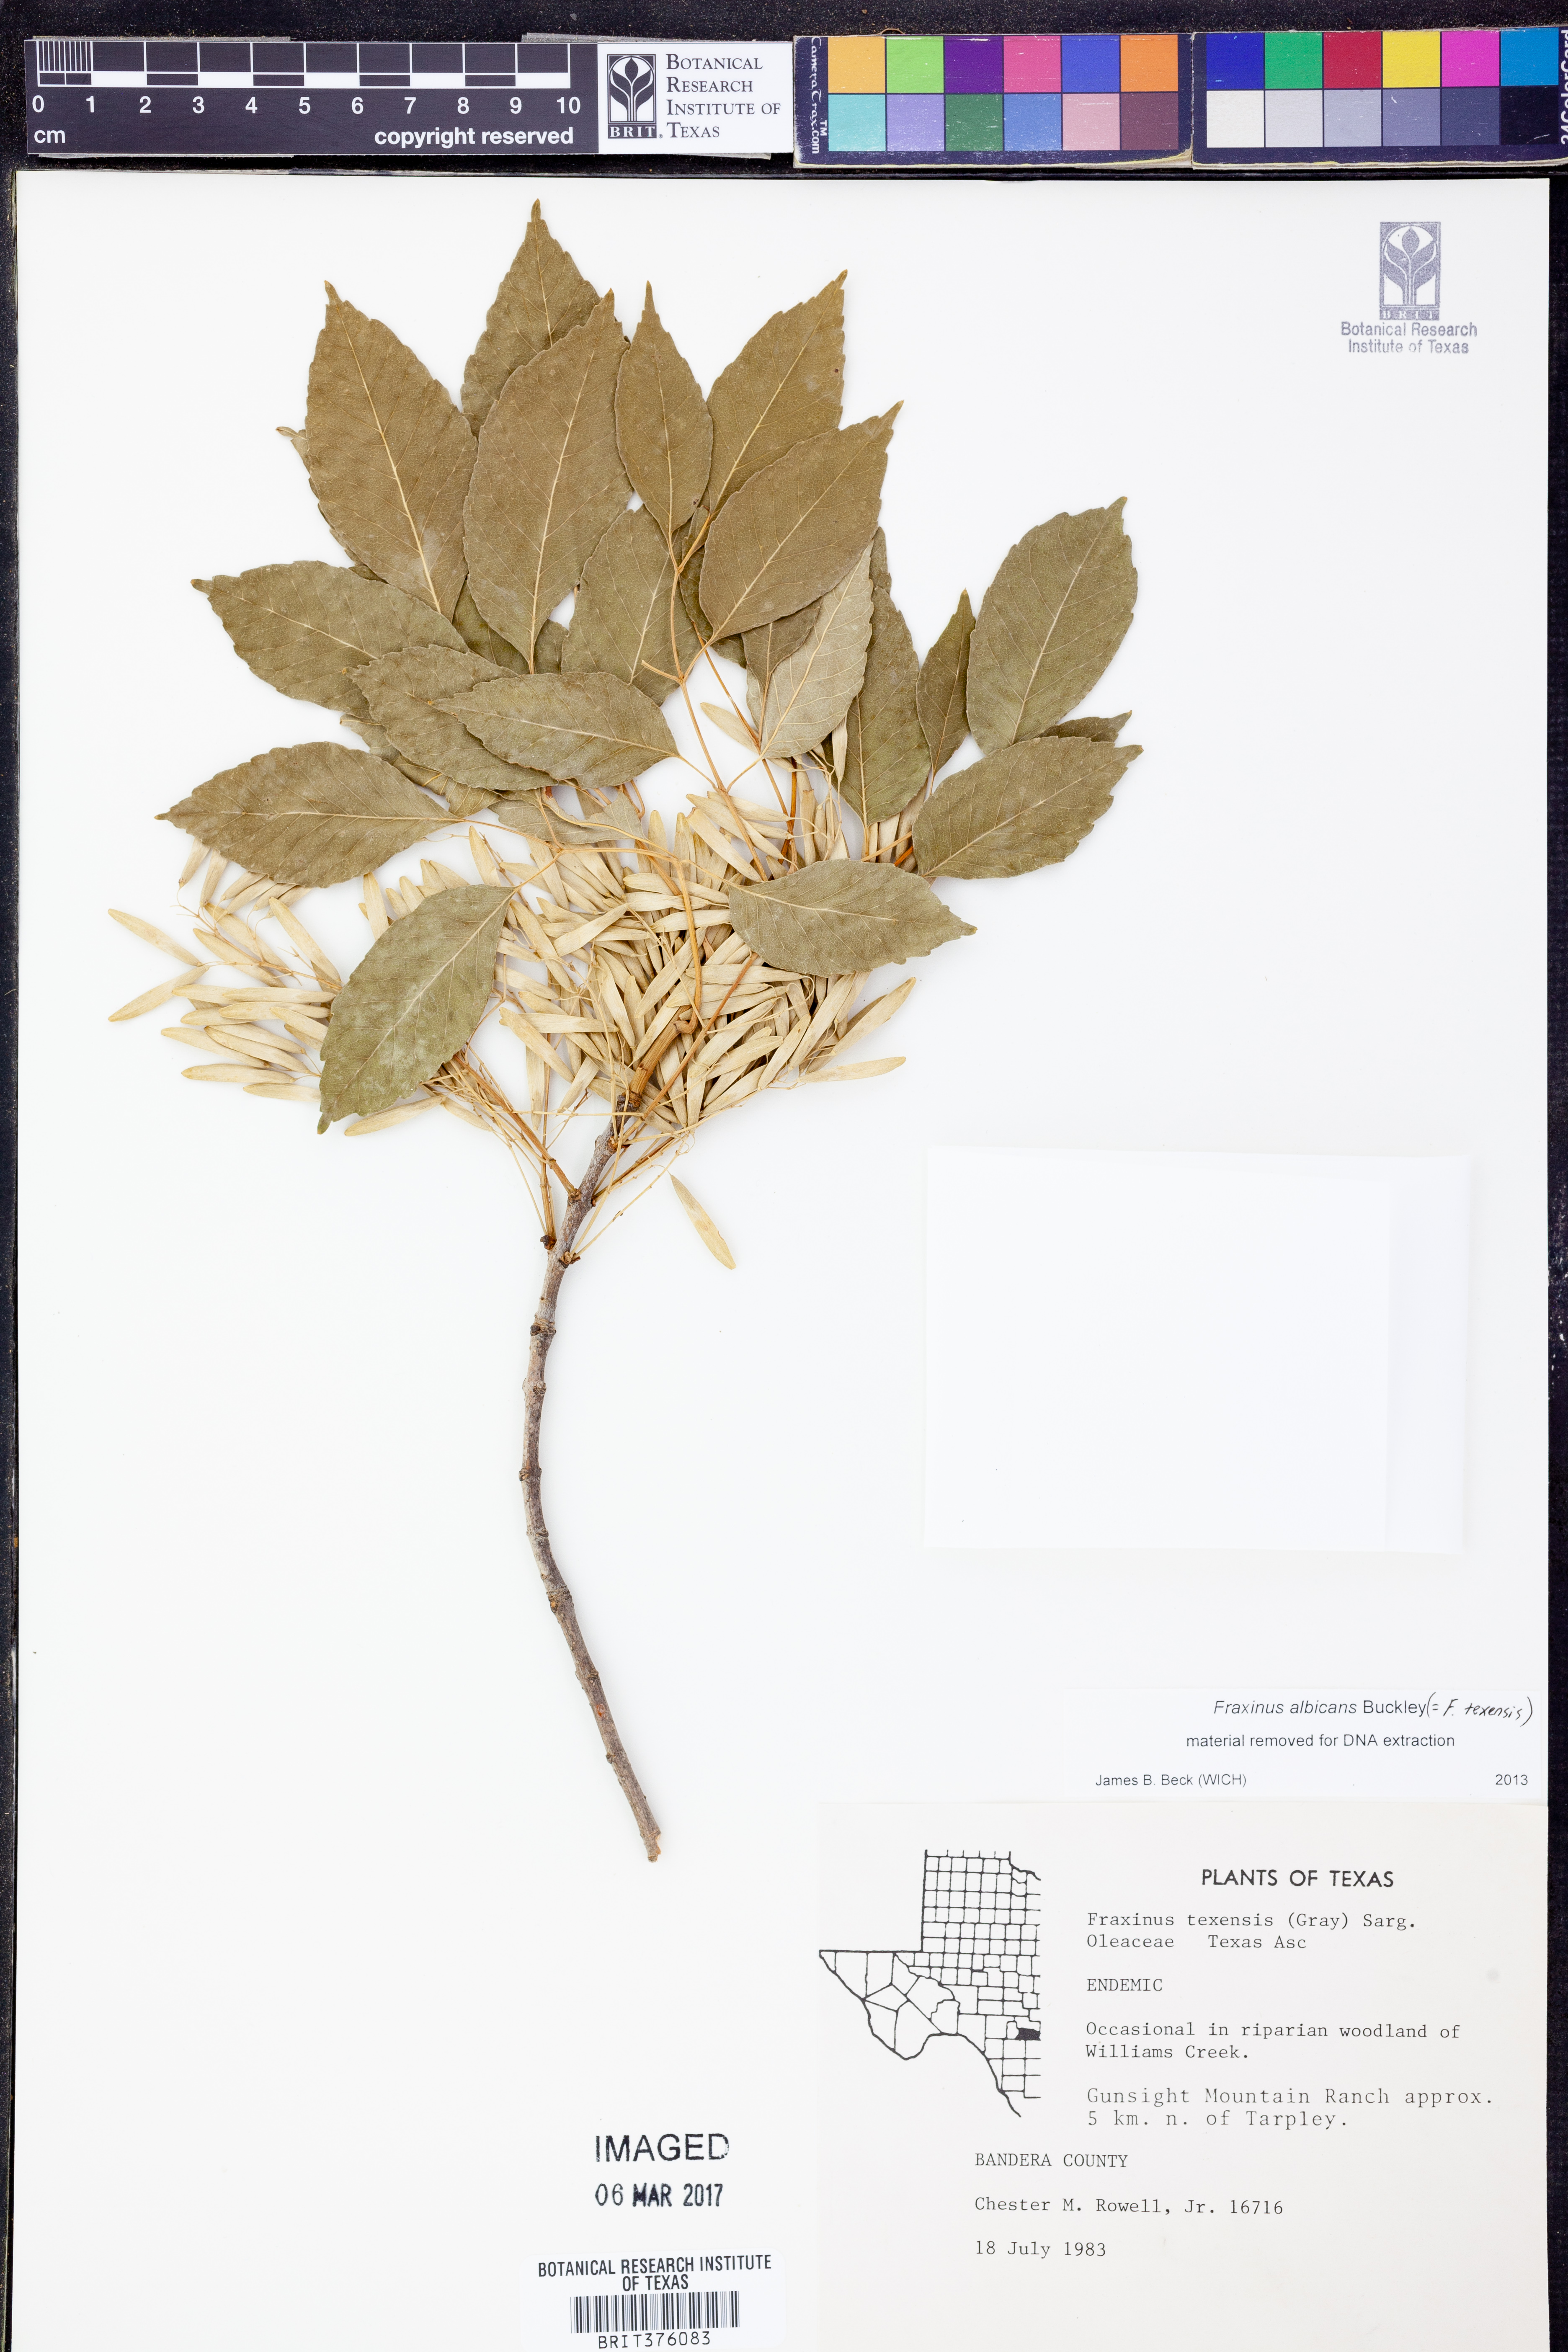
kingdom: Plantae
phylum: Tracheophyta
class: Magnoliopsida
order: Lamiales
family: Oleaceae
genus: Fraxinus
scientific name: Fraxinus albicans
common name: Texas ash
